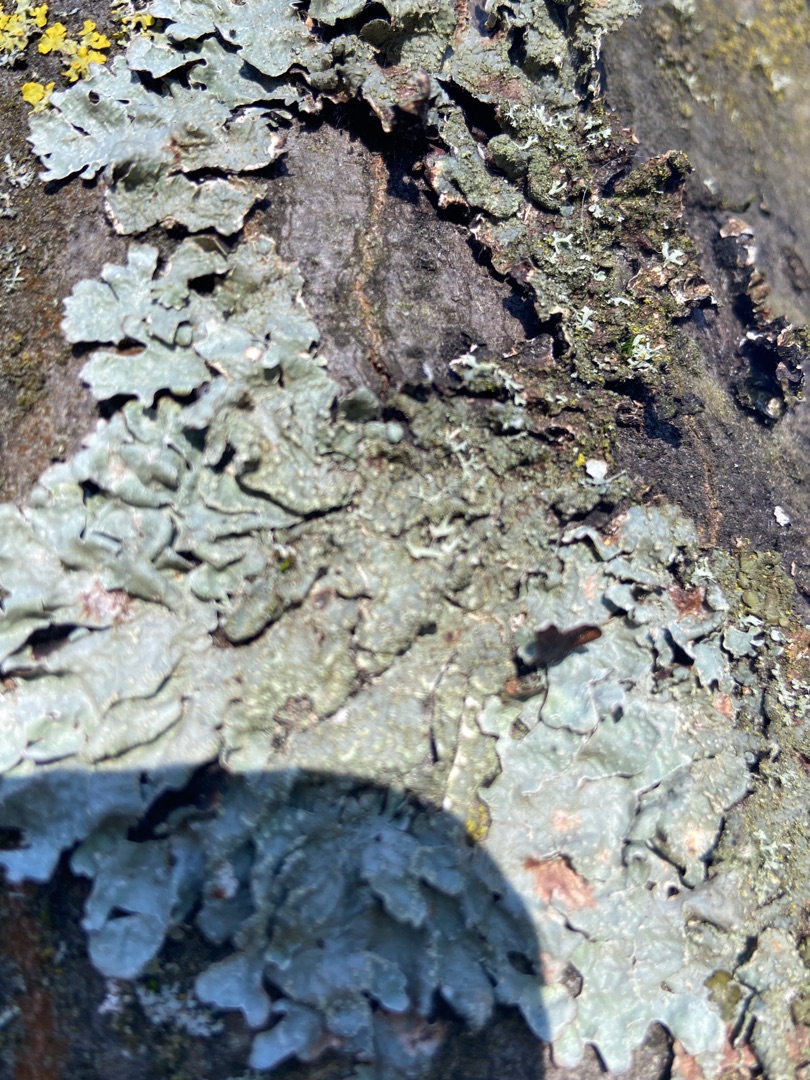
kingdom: Fungi
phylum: Ascomycota
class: Lecanoromycetes
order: Lecanorales
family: Parmeliaceae
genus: Parmelia
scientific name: Parmelia sulcata
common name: Rynket skållav
